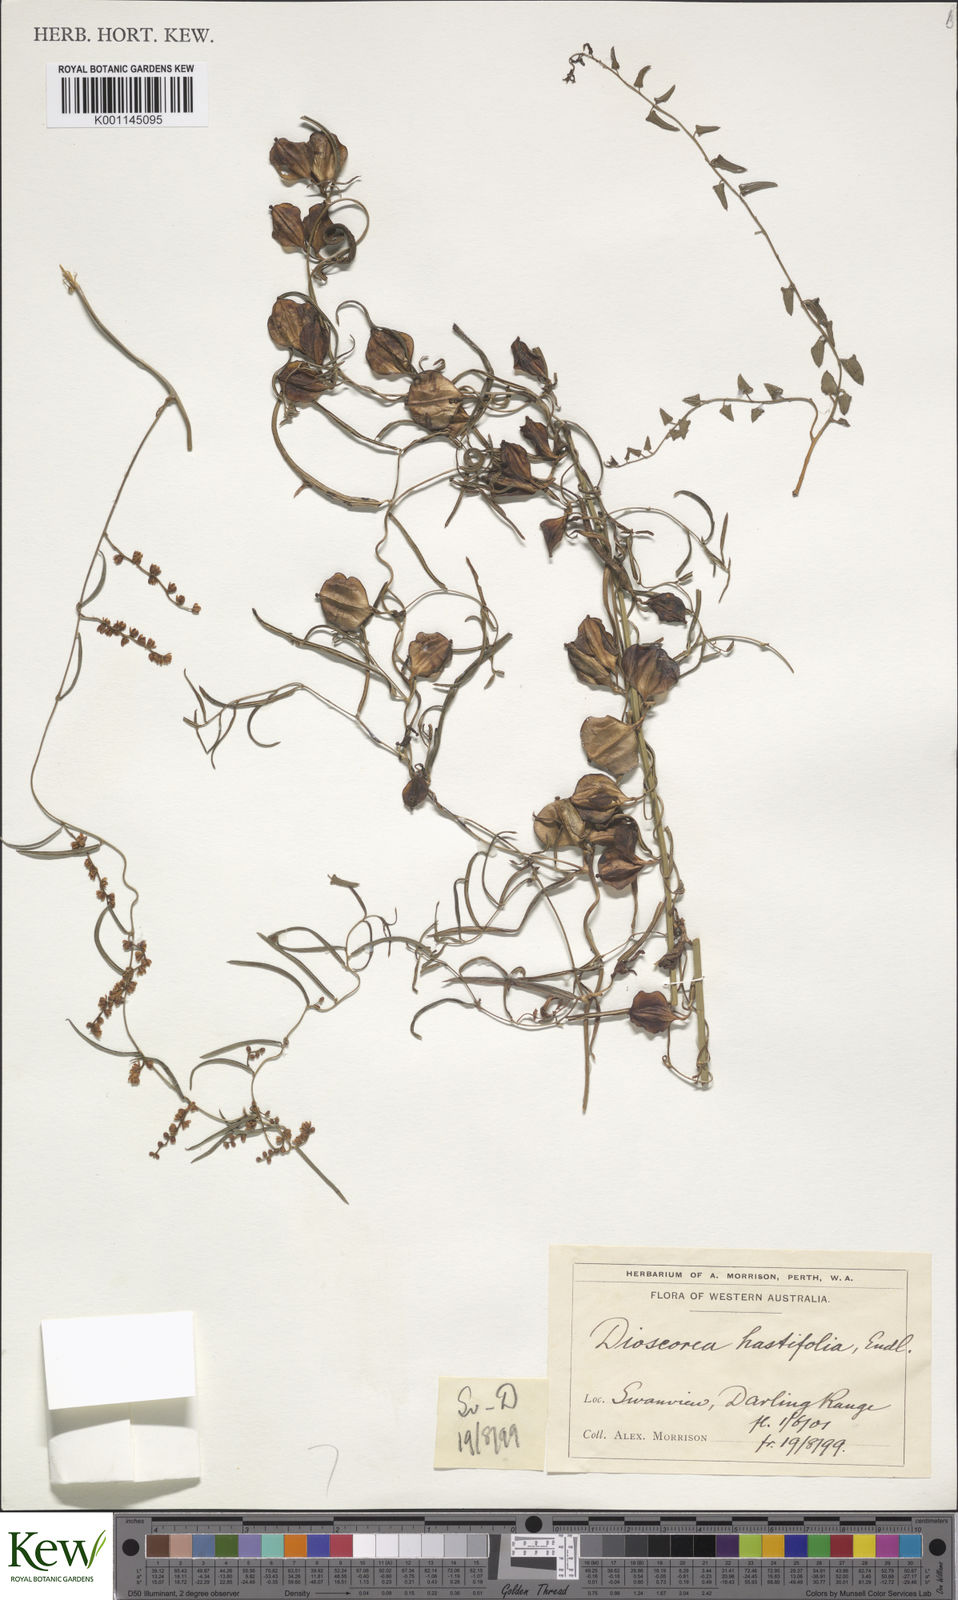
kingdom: Plantae
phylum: Tracheophyta
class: Liliopsida
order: Dioscoreales
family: Dioscoreaceae
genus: Dioscorea
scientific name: Dioscorea hastifolia
